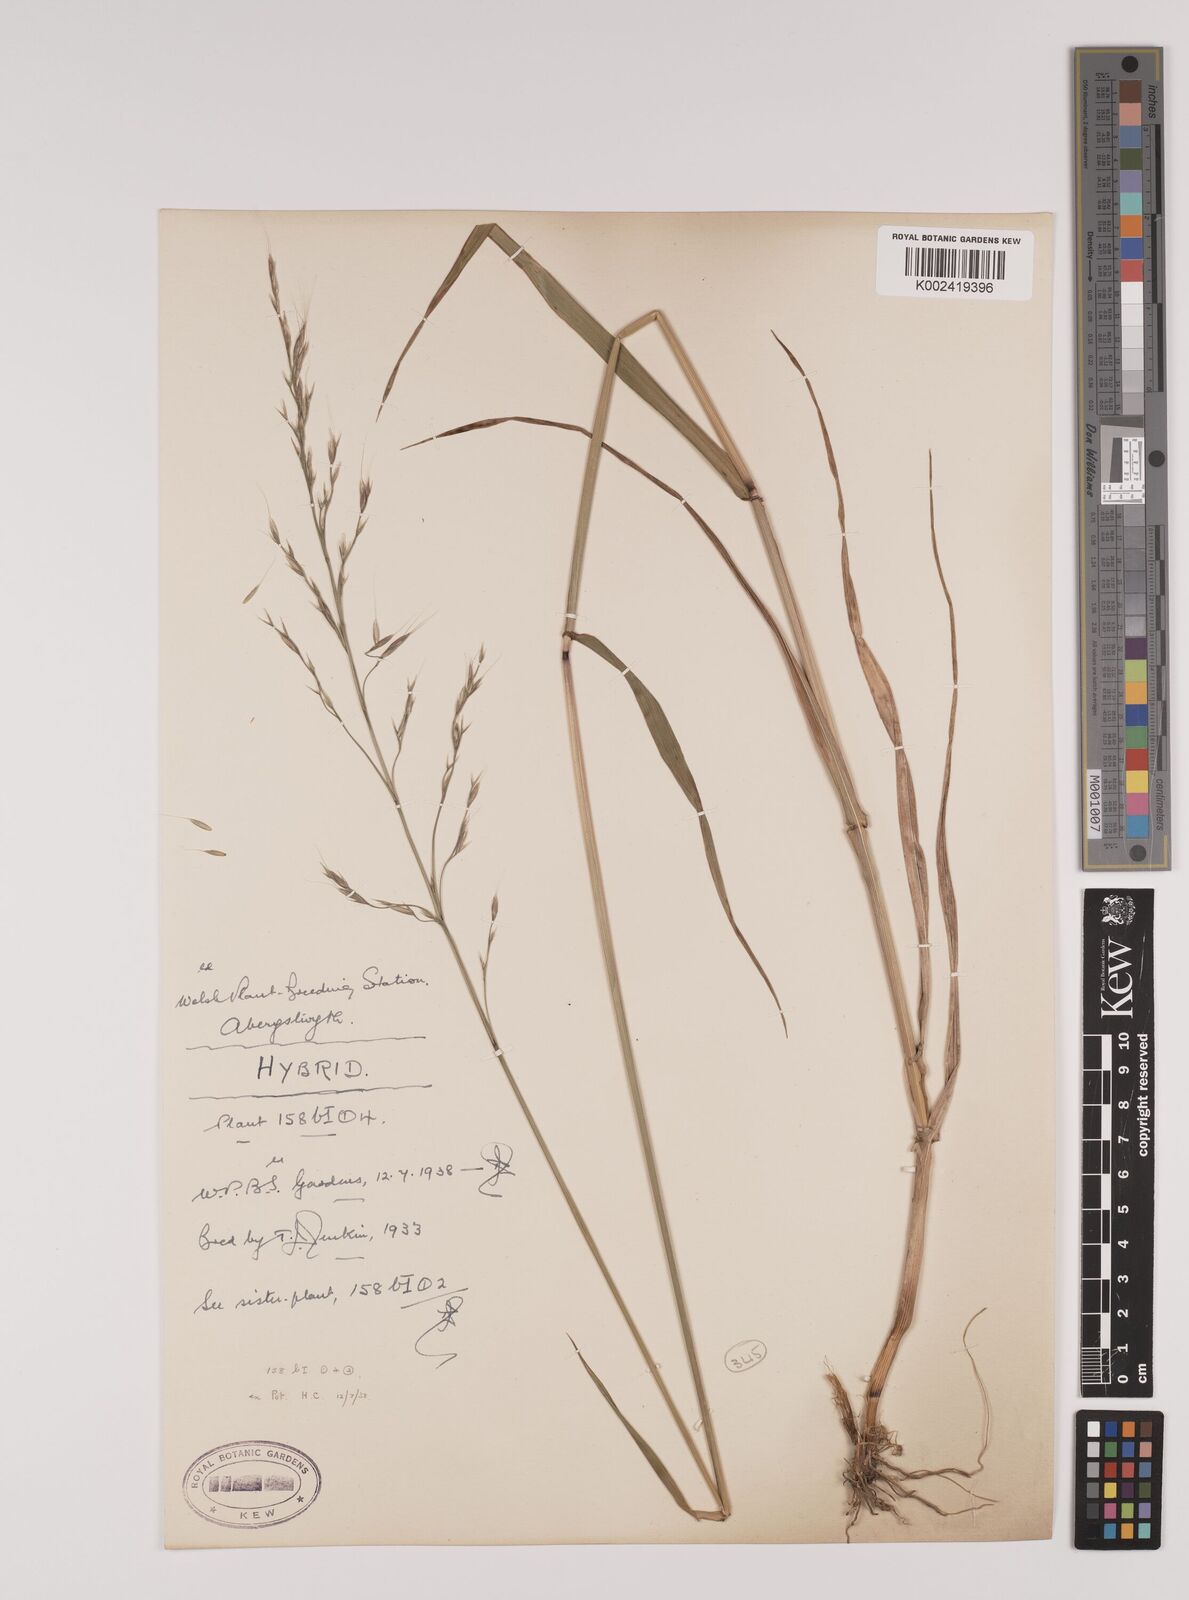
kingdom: Plantae
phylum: Tracheophyta
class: Liliopsida
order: Poales
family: Poaceae
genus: Lolium
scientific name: Lolium giganteum
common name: Giant fescue
